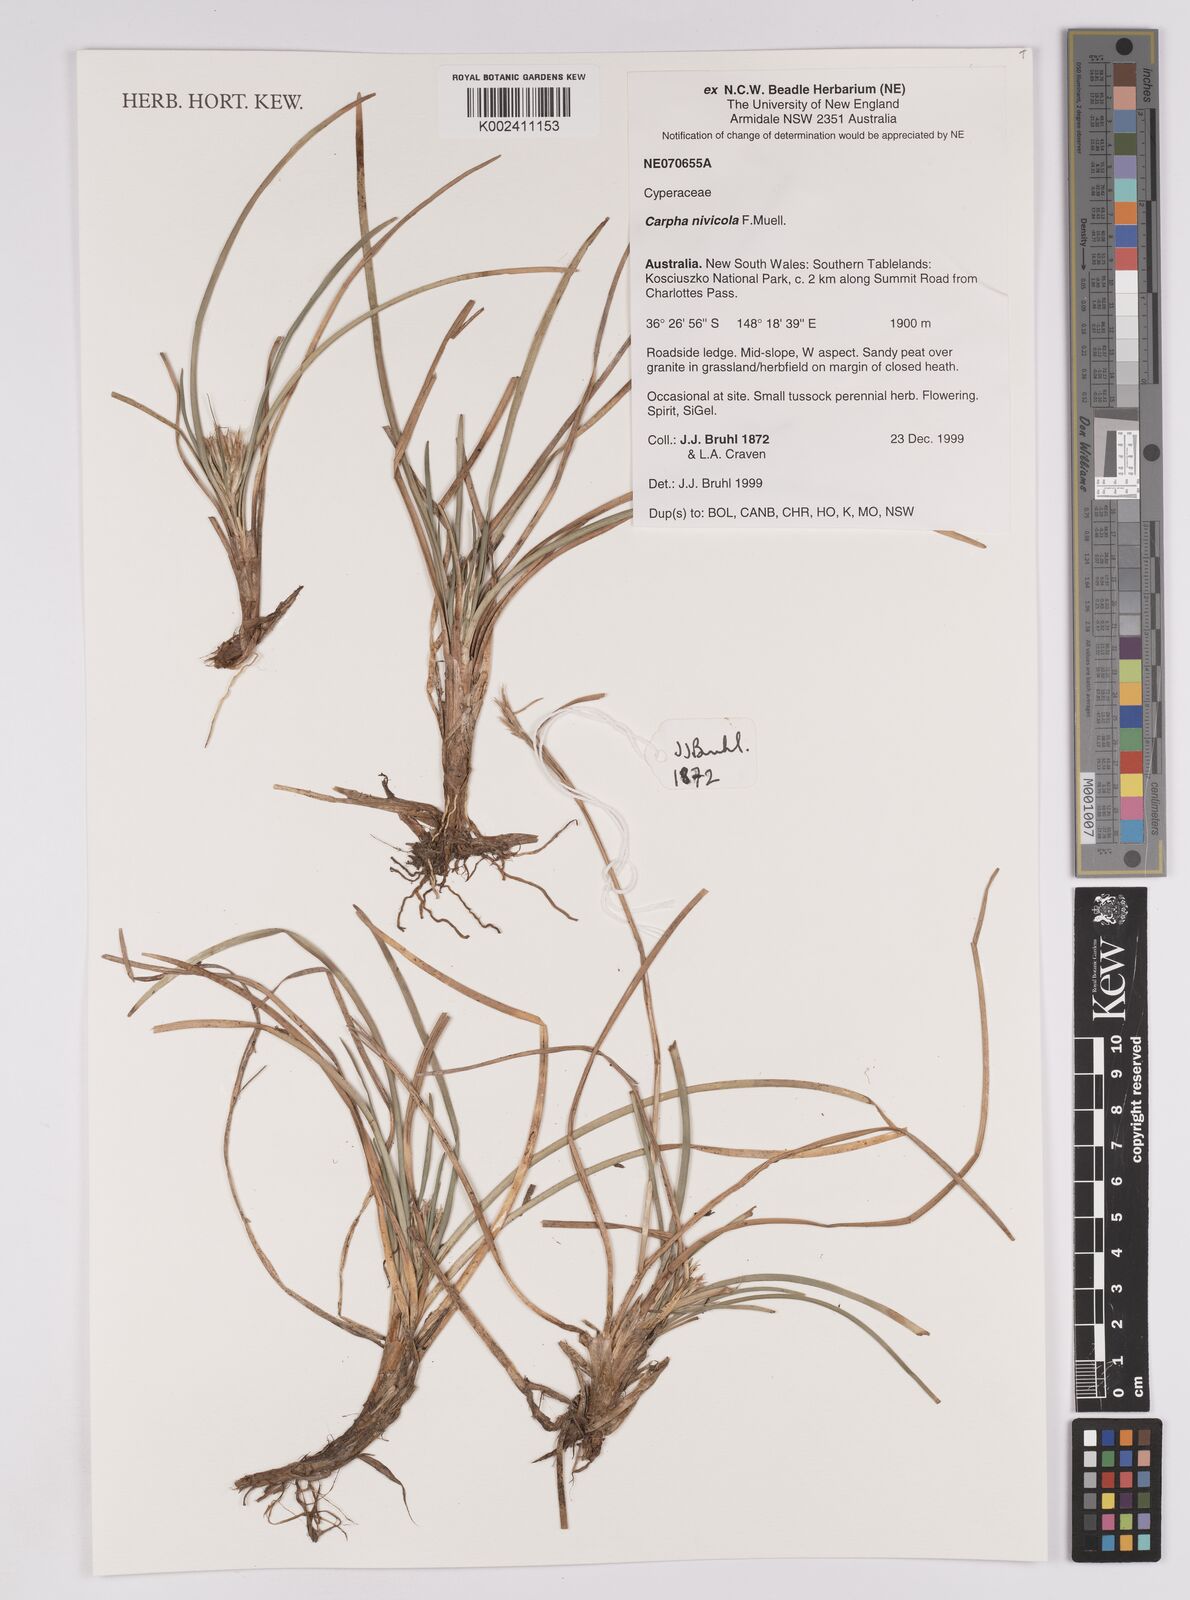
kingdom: Plantae
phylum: Tracheophyta
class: Liliopsida
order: Poales
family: Cyperaceae
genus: Carpha
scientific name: Carpha nivicola
